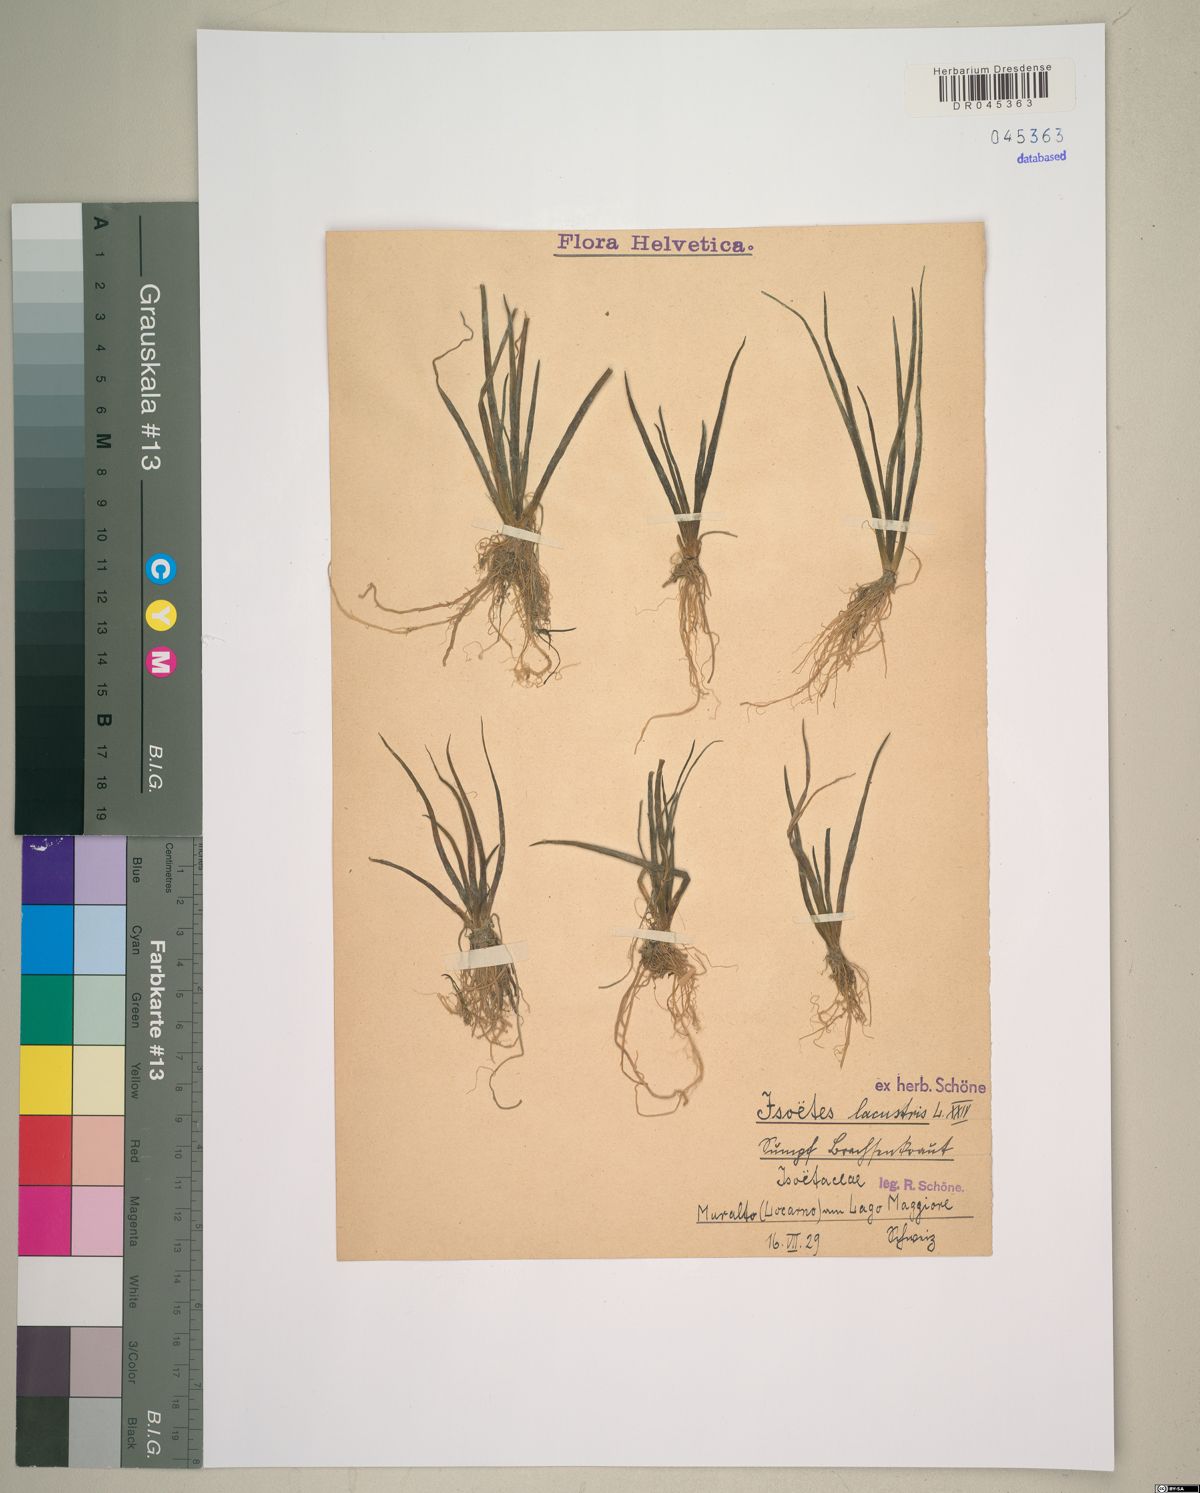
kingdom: Plantae
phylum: Tracheophyta
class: Lycopodiopsida
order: Isoetales
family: Isoetaceae
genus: Isoetes
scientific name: Isoetes lacustris
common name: Common quillwort
